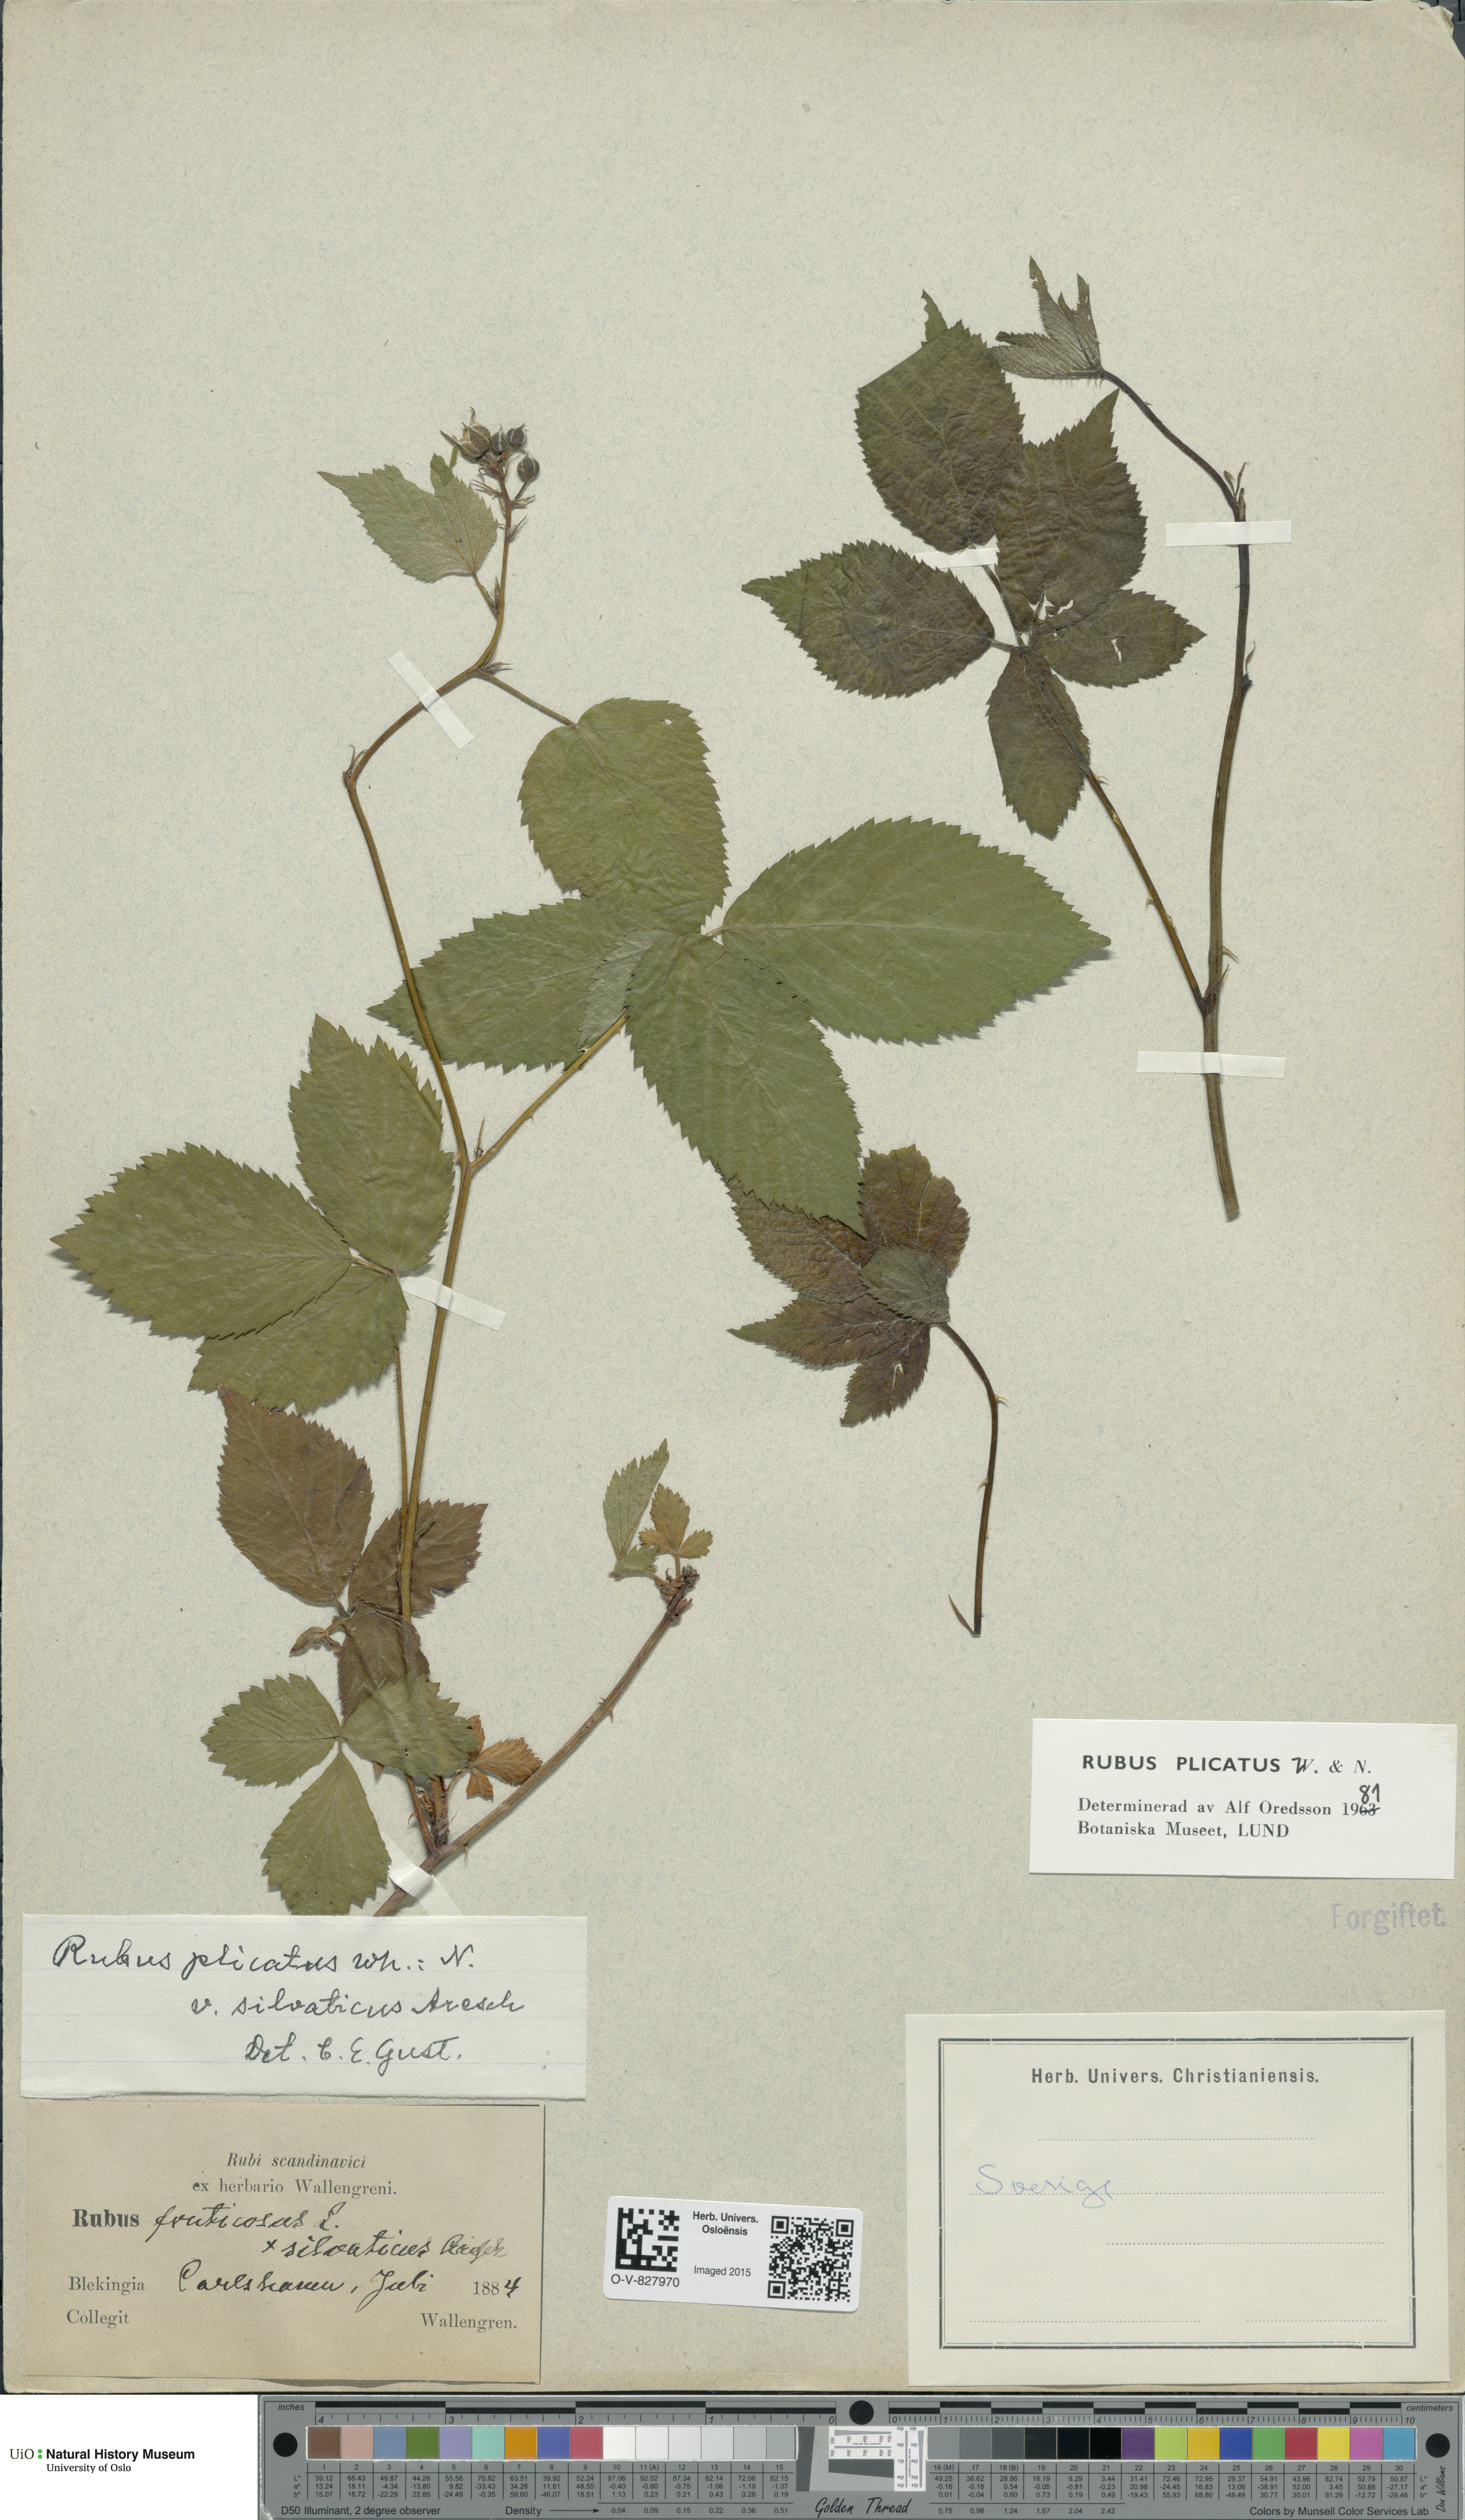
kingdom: Plantae
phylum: Tracheophyta
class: Magnoliopsida
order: Rosales
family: Rosaceae
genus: Rubus
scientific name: Rubus fruticosus
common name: Blackberry, bramble
